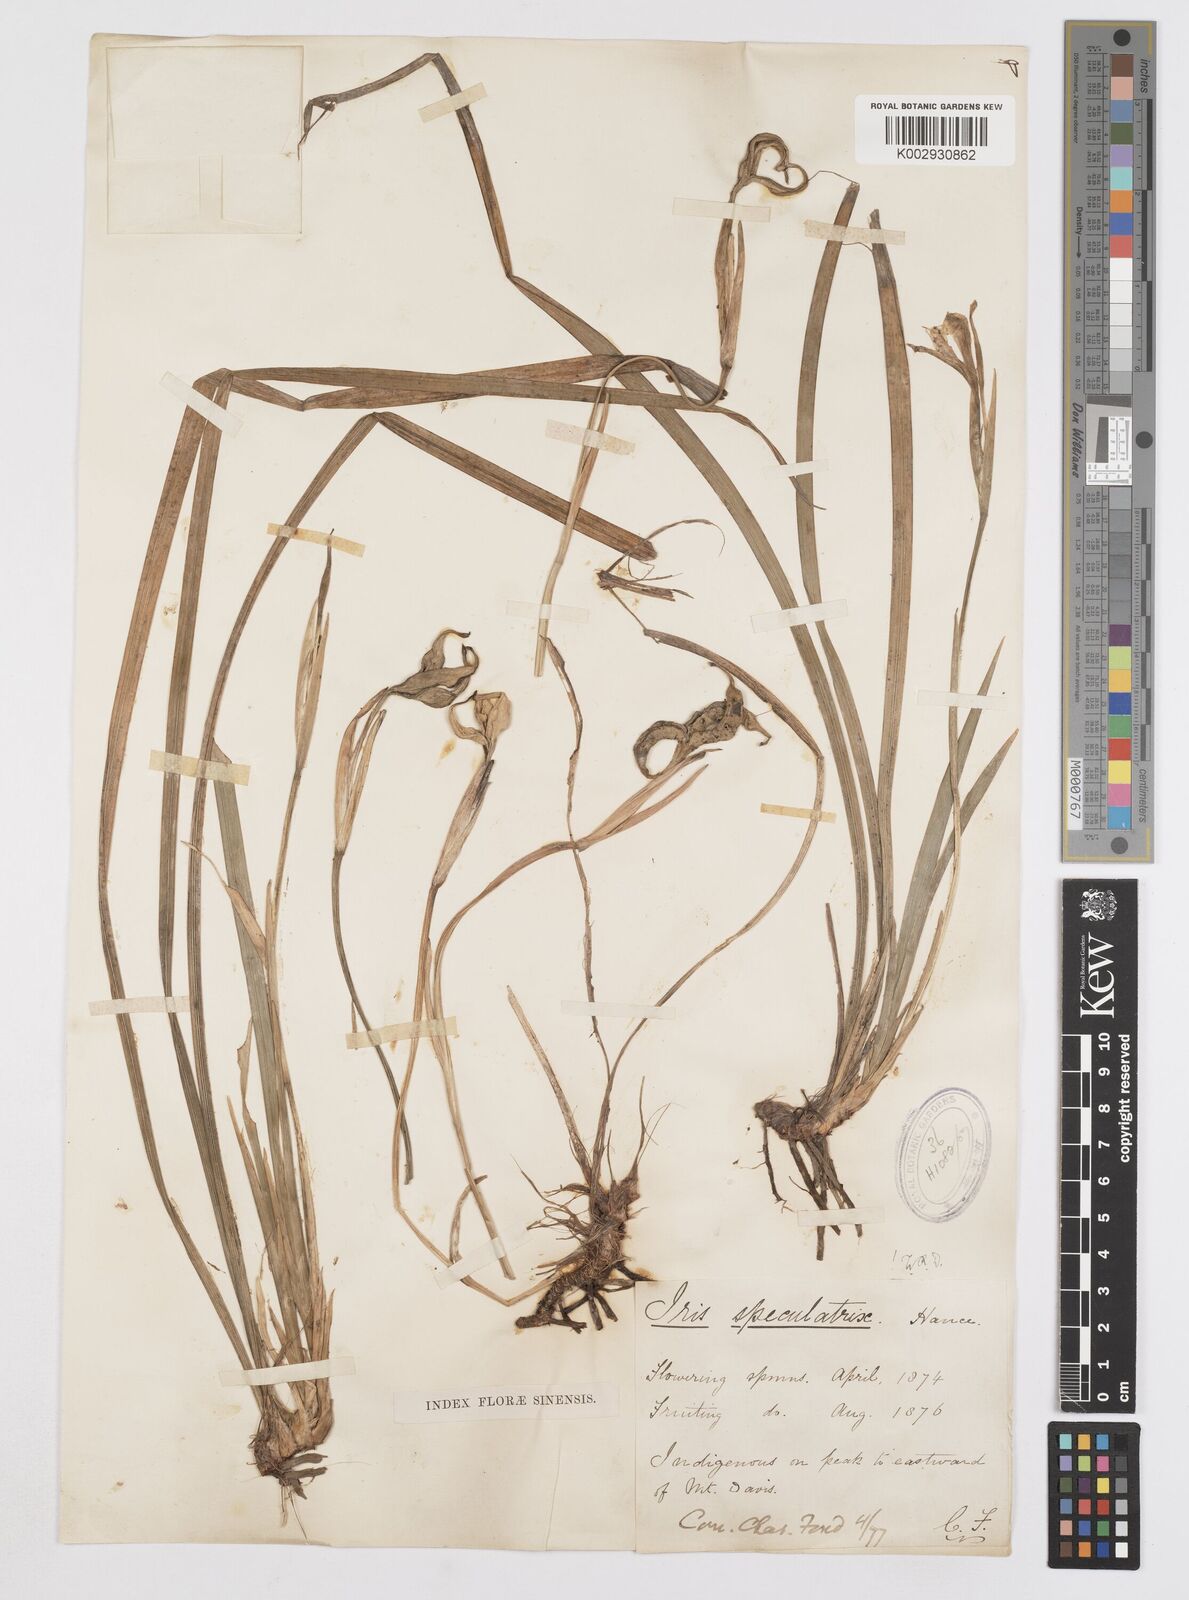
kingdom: Plantae
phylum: Tracheophyta
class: Liliopsida
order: Asparagales
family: Iridaceae
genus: Iris
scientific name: Iris speculatrix
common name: Small-flower iris
